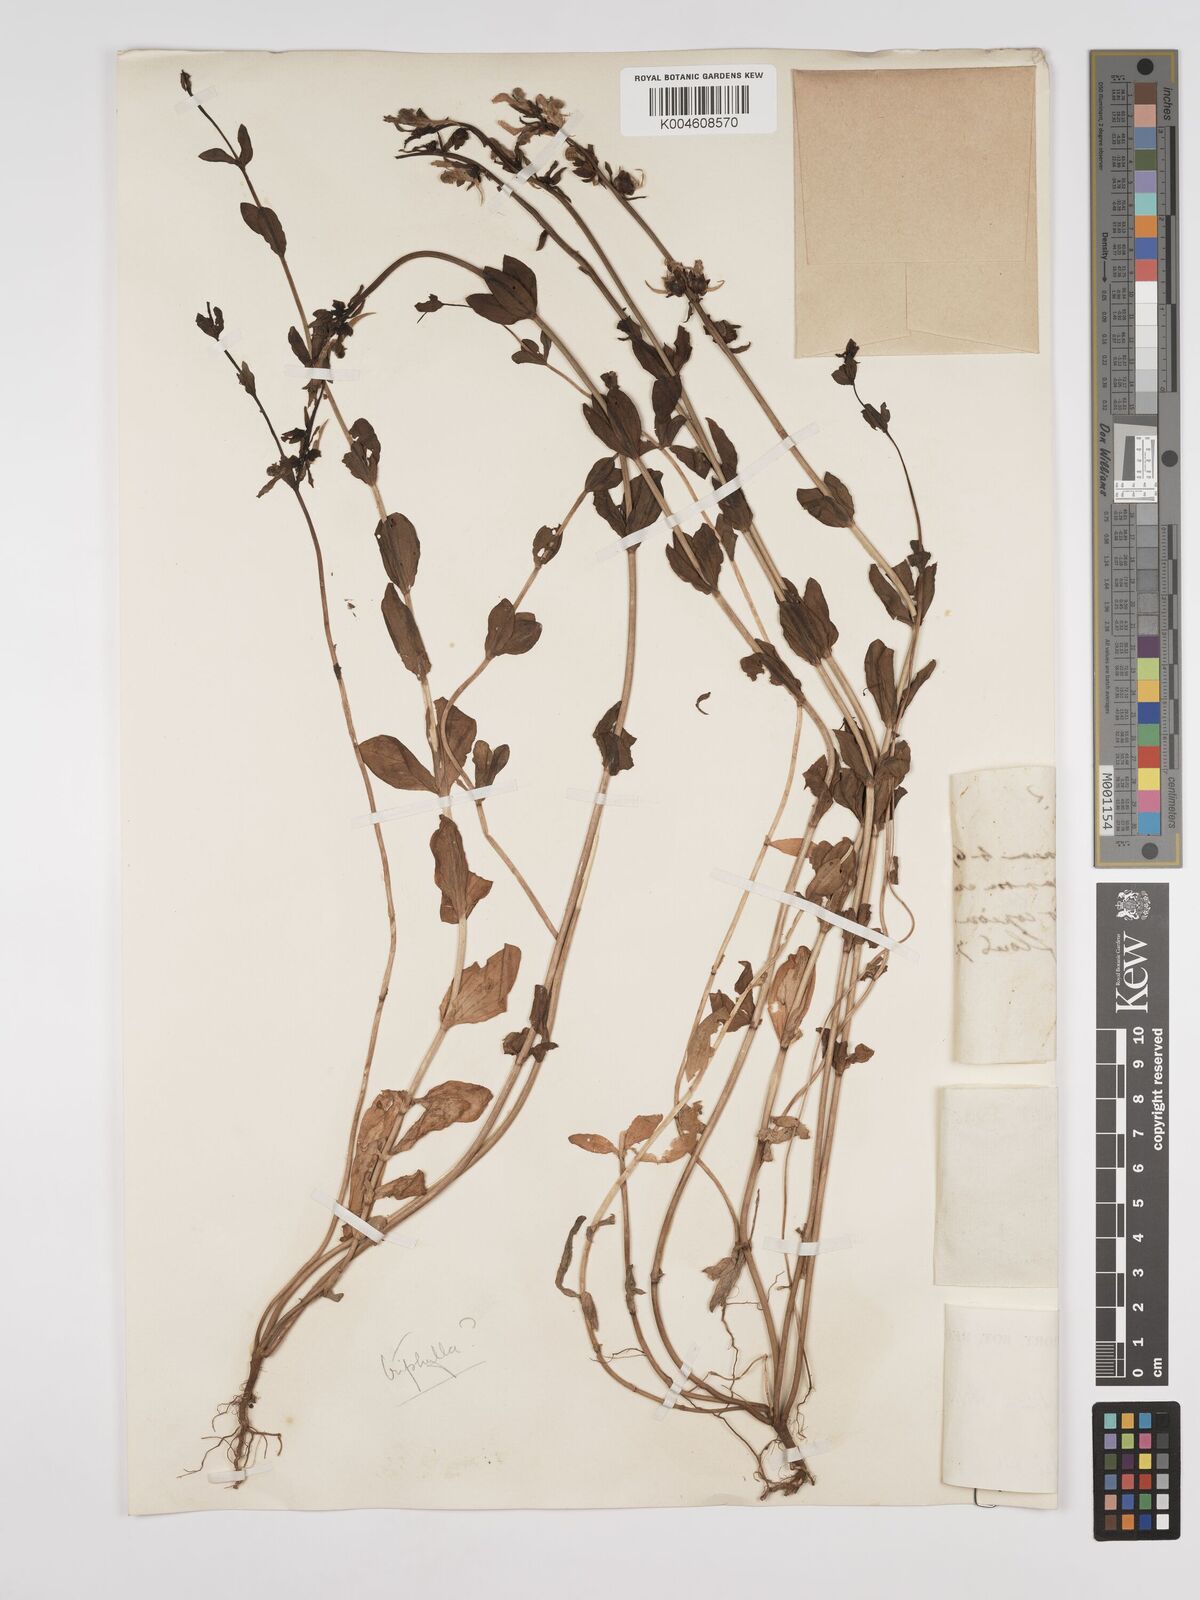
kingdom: Plantae
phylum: Tracheophyta
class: Magnoliopsida
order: Lamiales
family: Plantaginaceae
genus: Kickxia
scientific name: Kickxia
